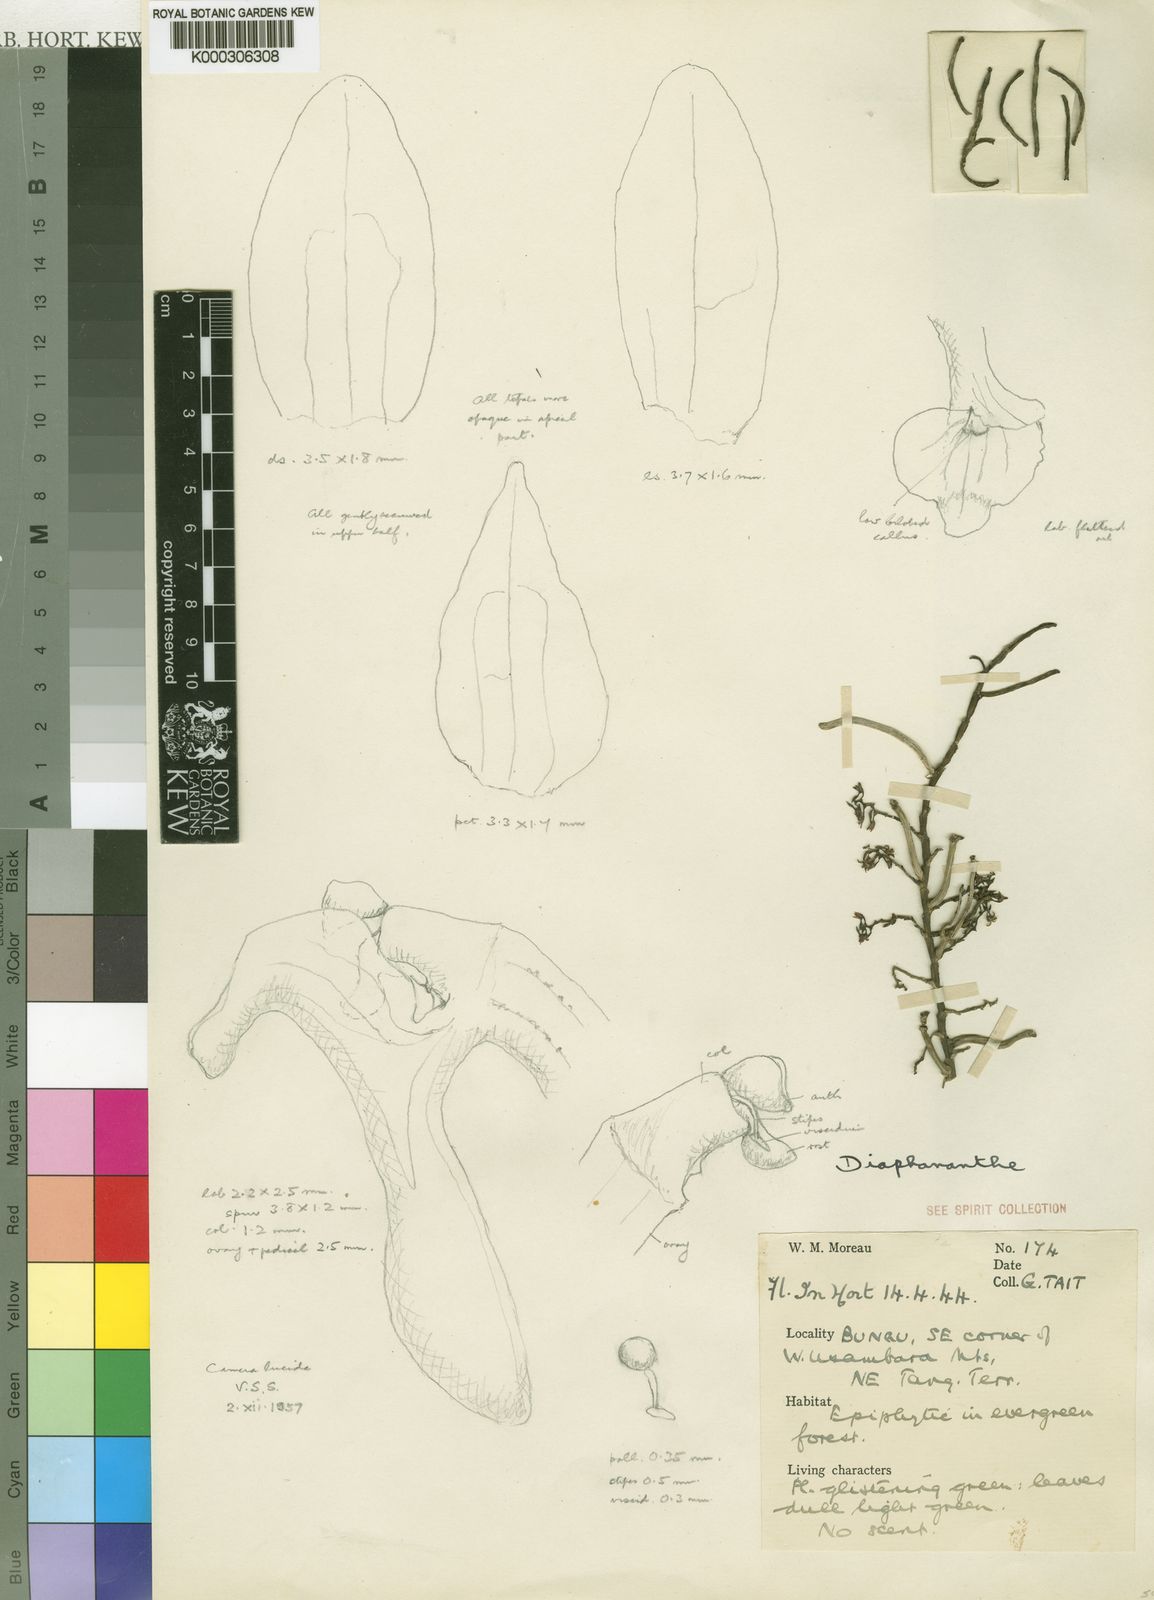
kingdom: Plantae
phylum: Tracheophyta
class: Liliopsida
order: Asparagales
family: Orchidaceae
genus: Rhipidoglossum
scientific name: Rhipidoglossum tanneri
